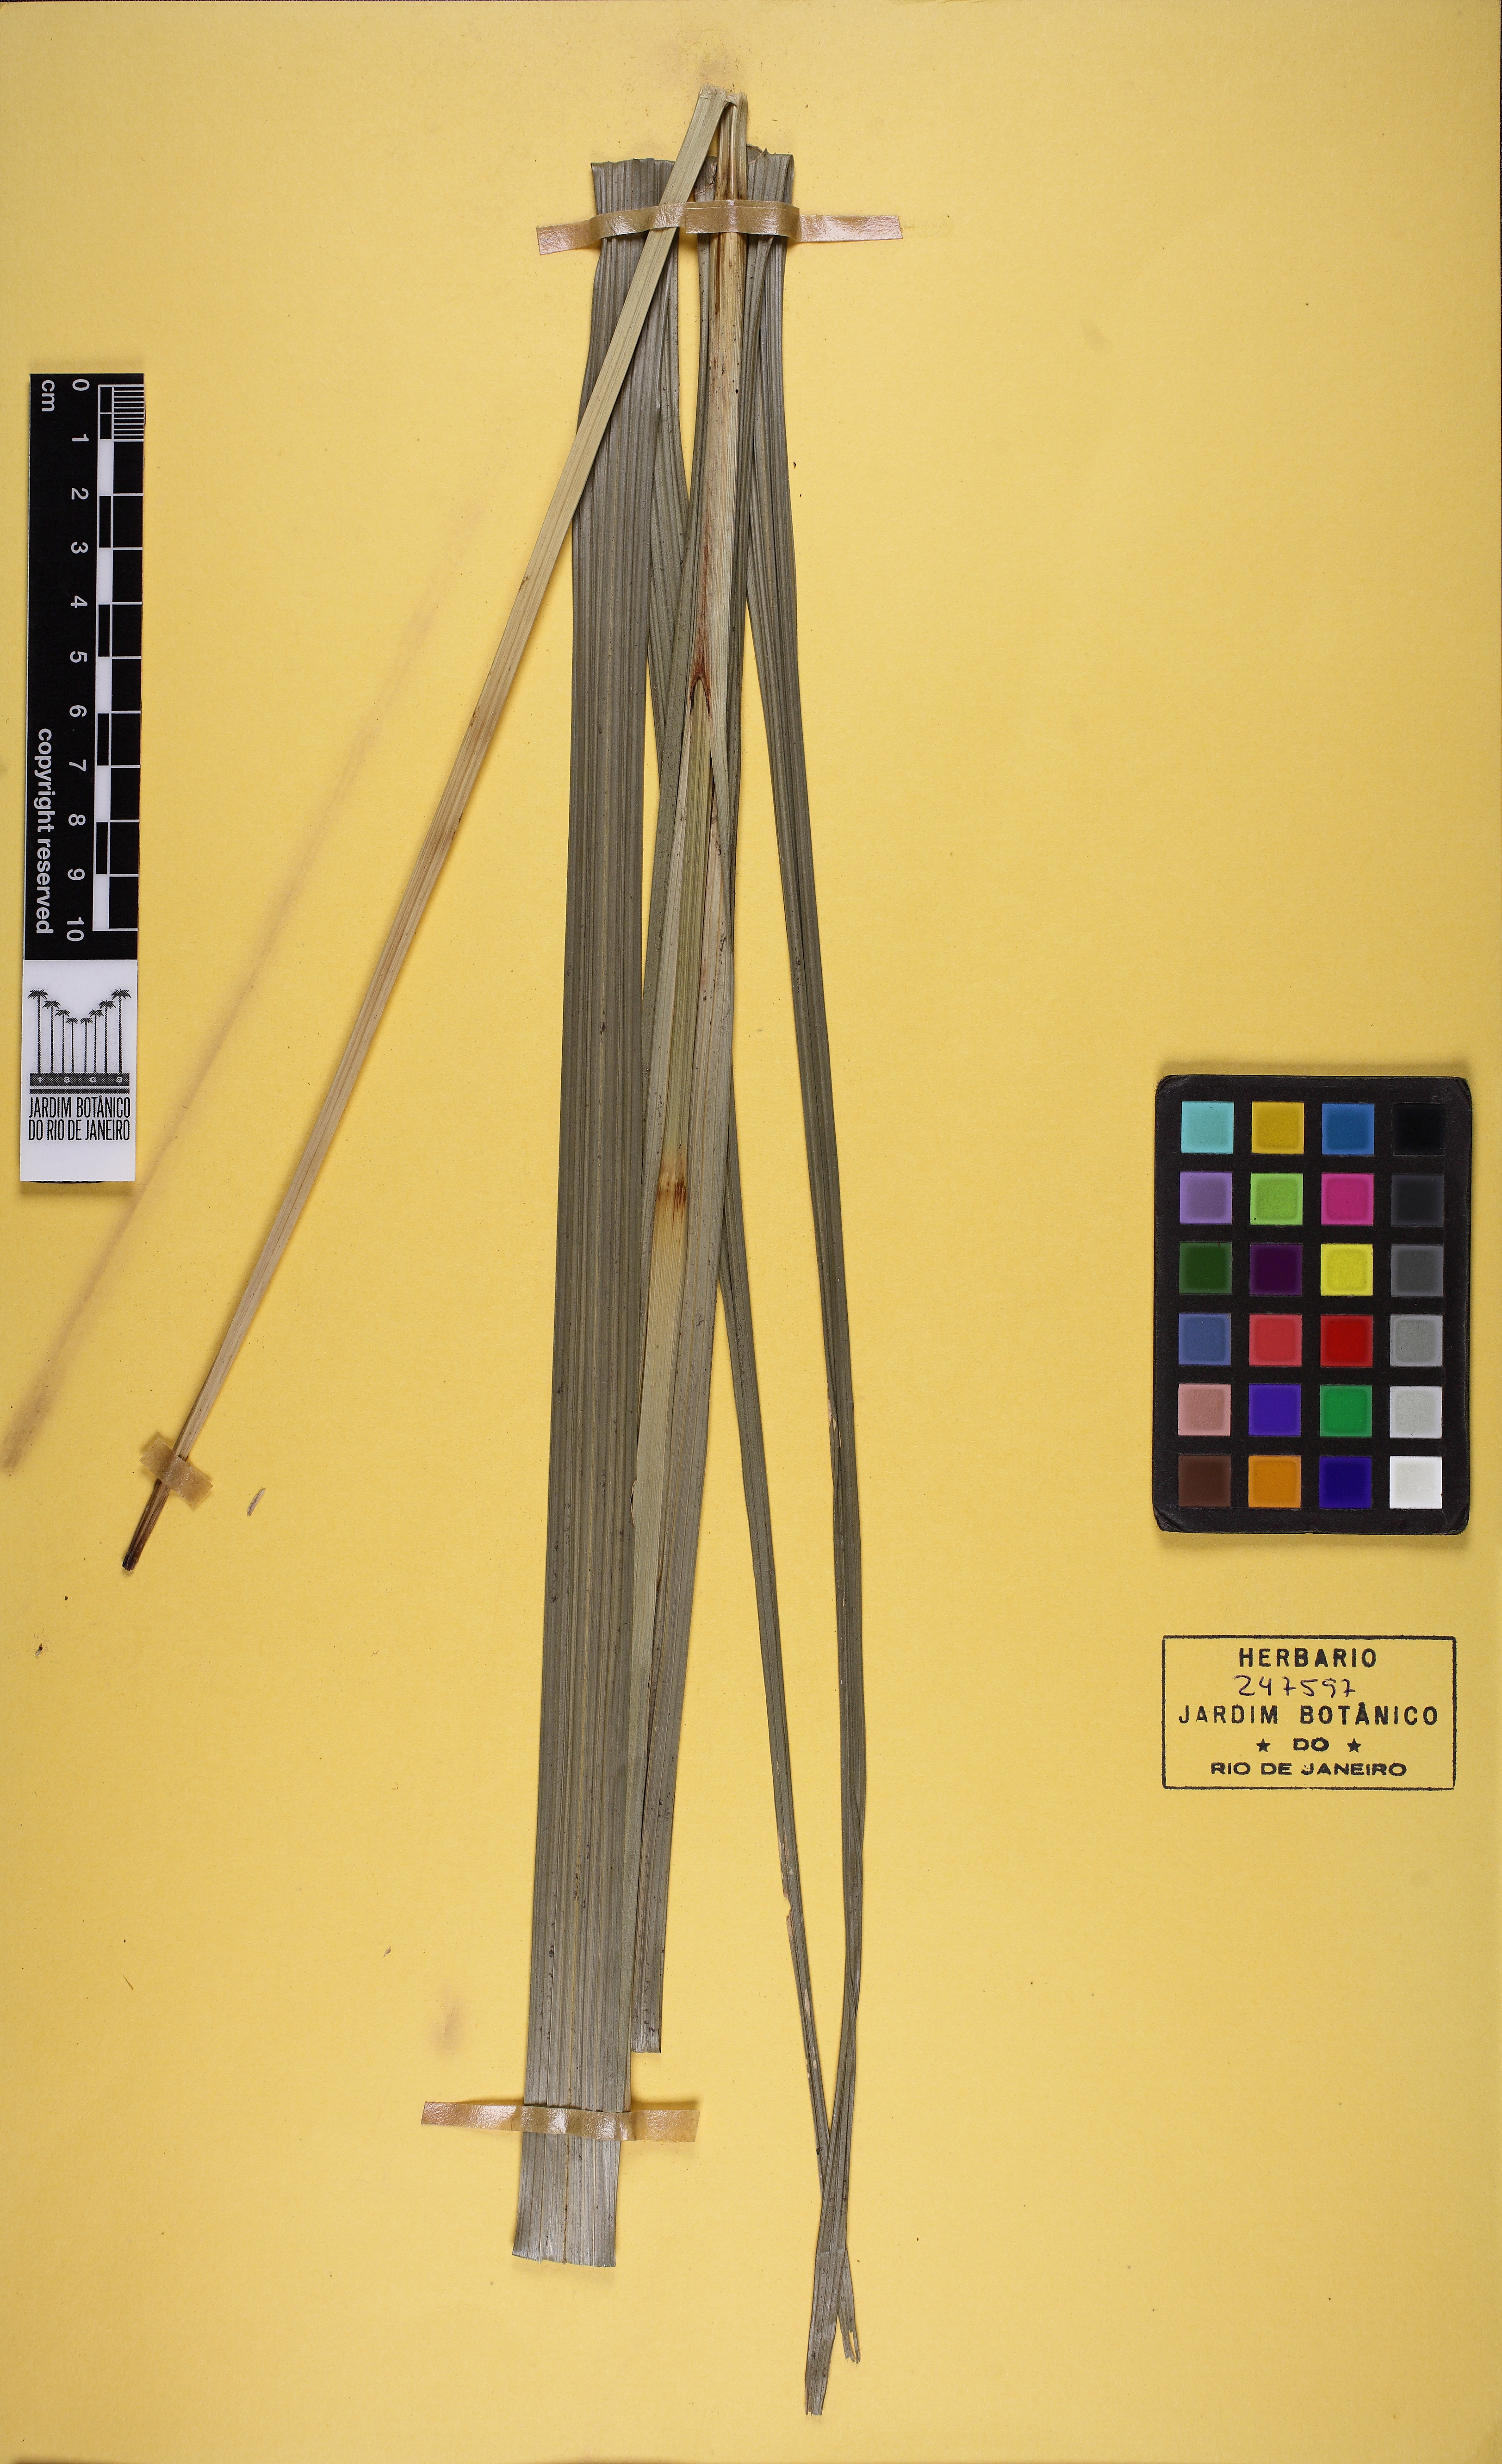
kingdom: Plantae
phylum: Tracheophyta
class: Liliopsida
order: Poales
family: Cyperaceae
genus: Rhynchospora
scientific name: Rhynchospora macrantha
